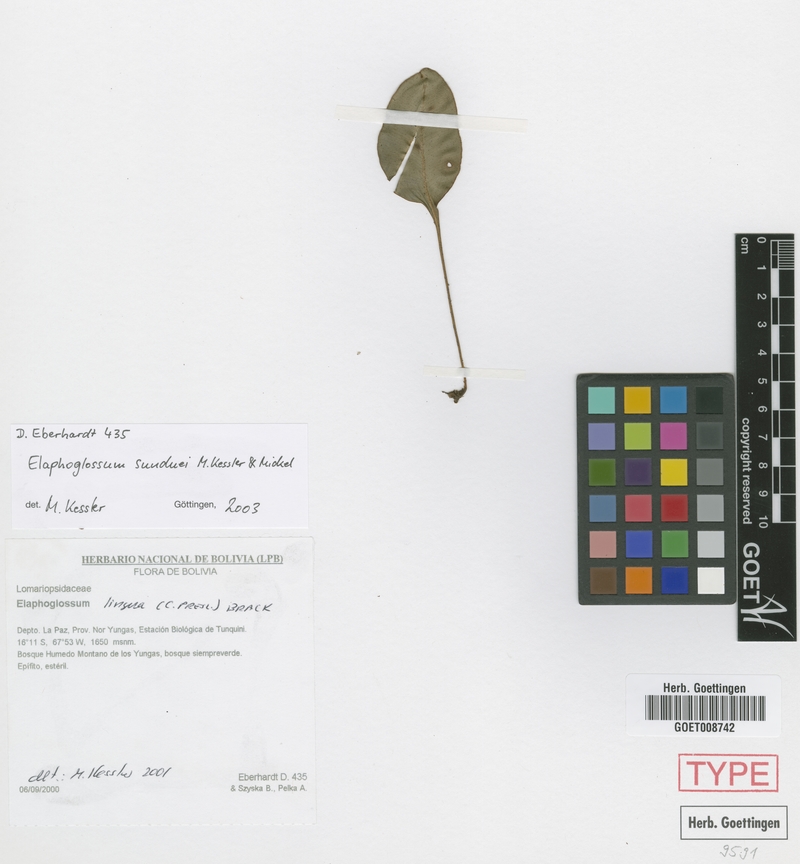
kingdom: Plantae
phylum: Tracheophyta
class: Polypodiopsida
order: Polypodiales
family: Dryopteridaceae
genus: Elaphoglossum
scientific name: Elaphoglossum sunduei
